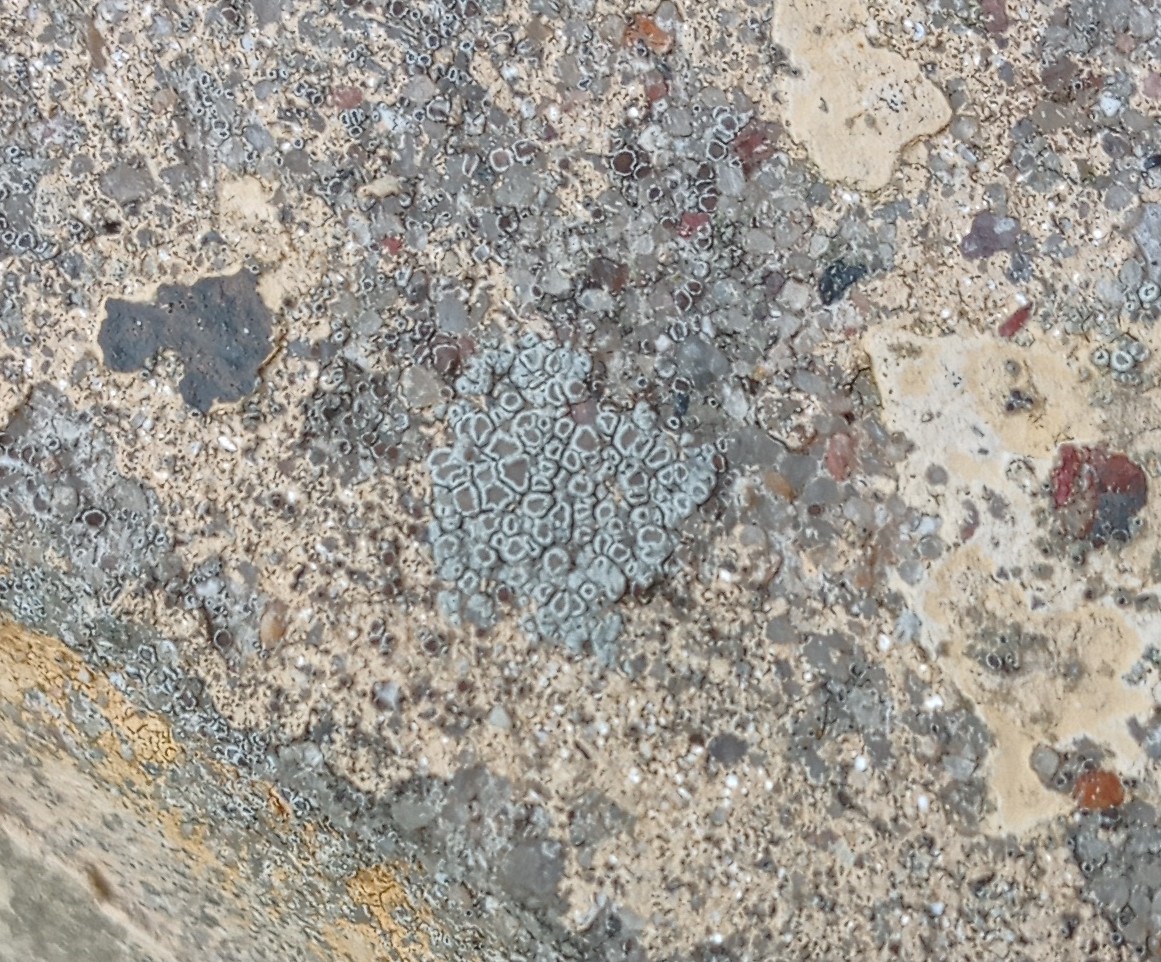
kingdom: Fungi
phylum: Ascomycota
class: Lecanoromycetes
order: Lecanorales
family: Lecanoraceae
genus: Lecanora
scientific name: Lecanora
